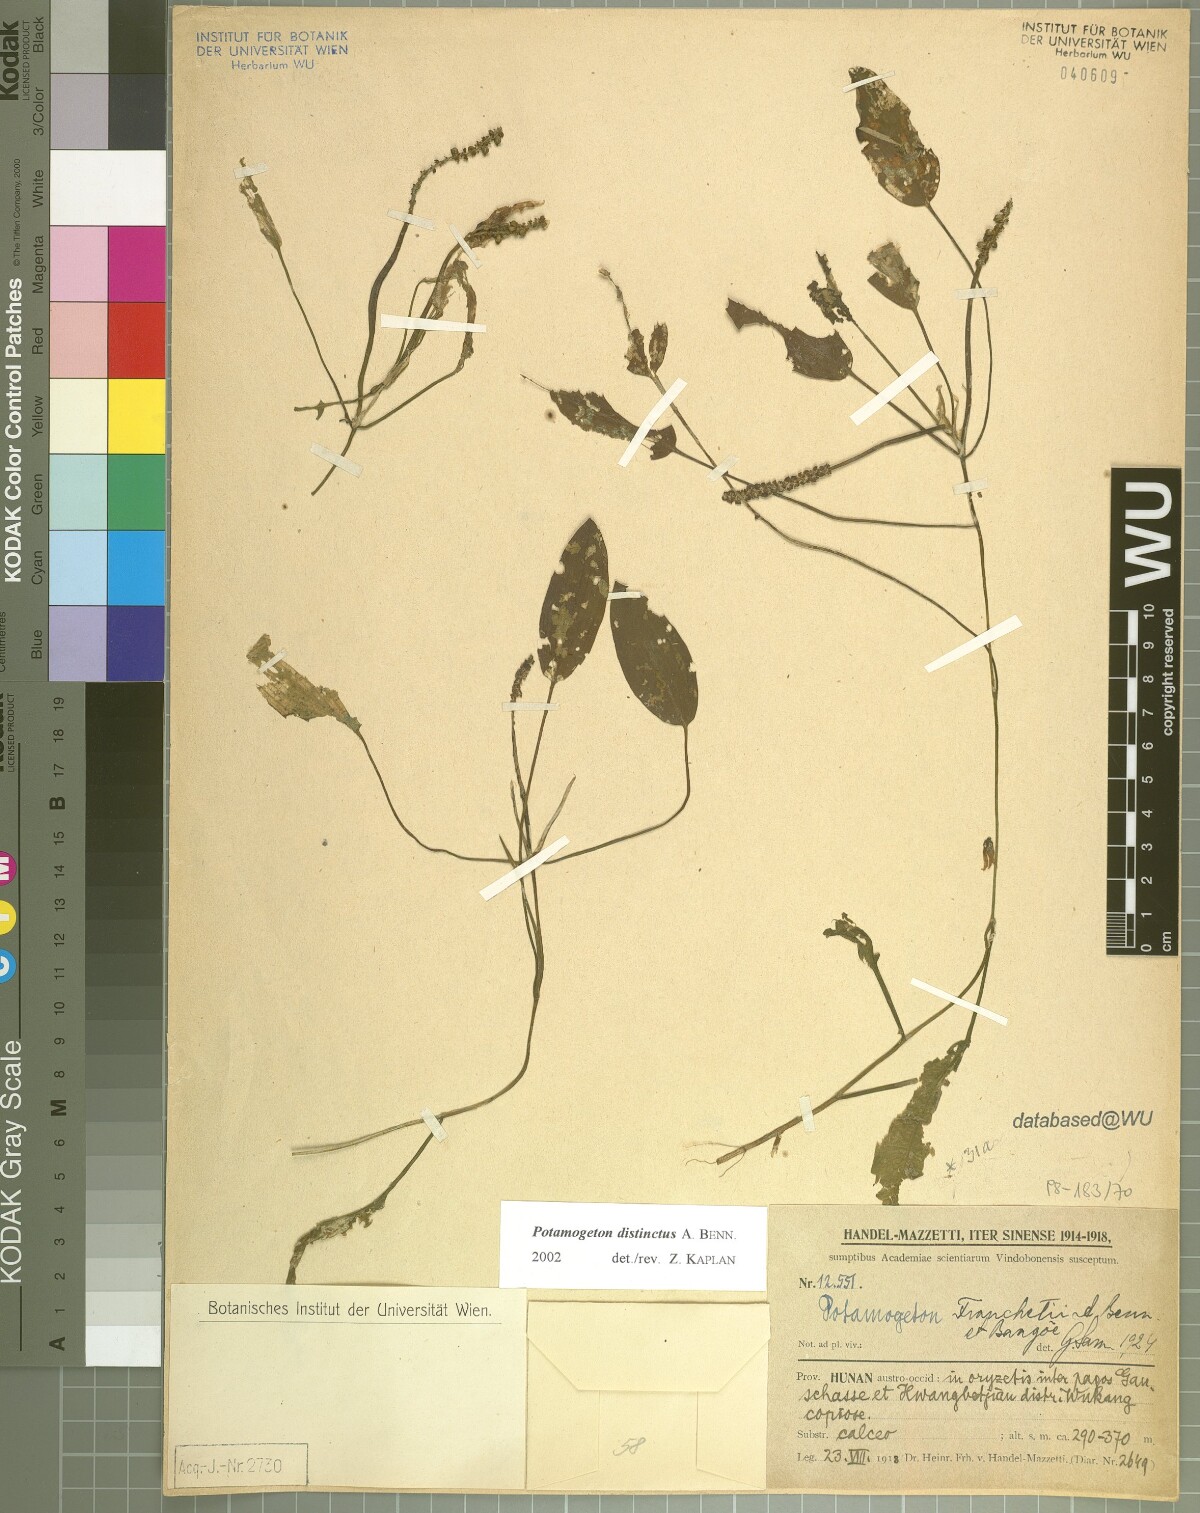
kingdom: Plantae
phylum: Tracheophyta
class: Liliopsida
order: Alismatales
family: Potamogetonaceae
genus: Potamogeton
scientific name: Potamogeton distinctus
